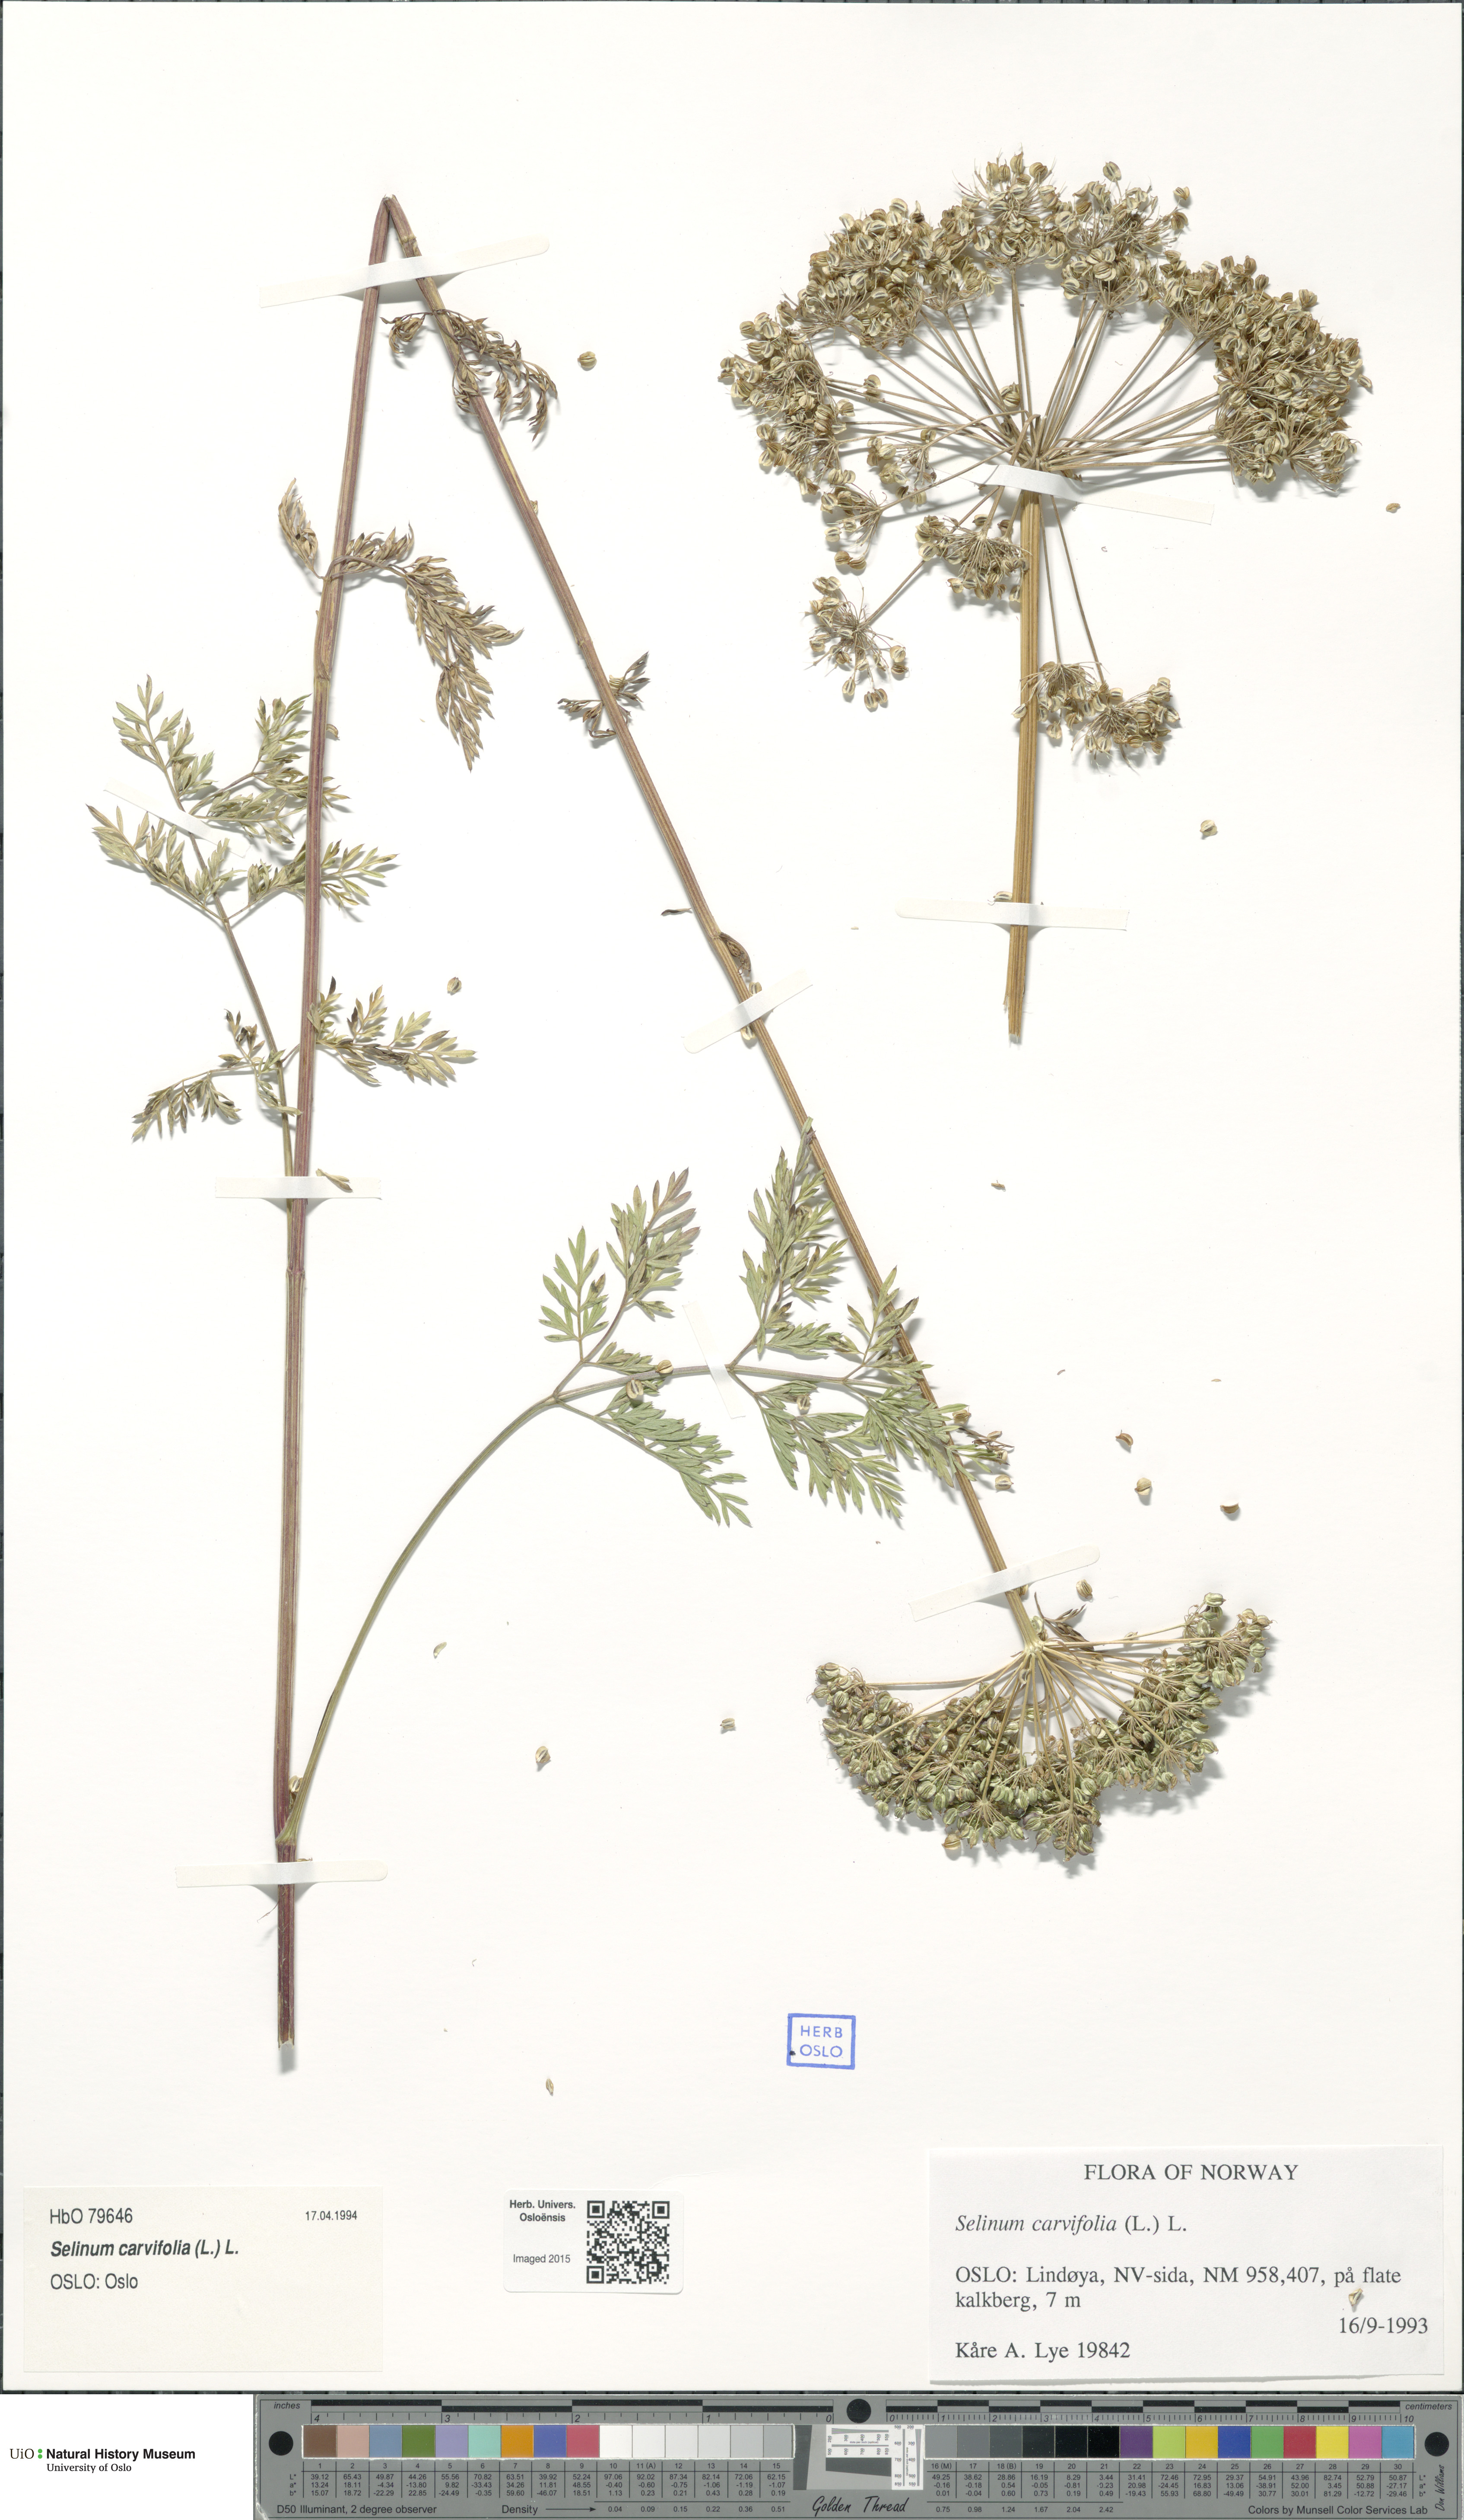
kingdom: Plantae
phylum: Tracheophyta
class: Magnoliopsida
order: Apiales
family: Apiaceae
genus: Selinum
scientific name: Selinum carvifolia
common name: Cambridge milk-parsley
